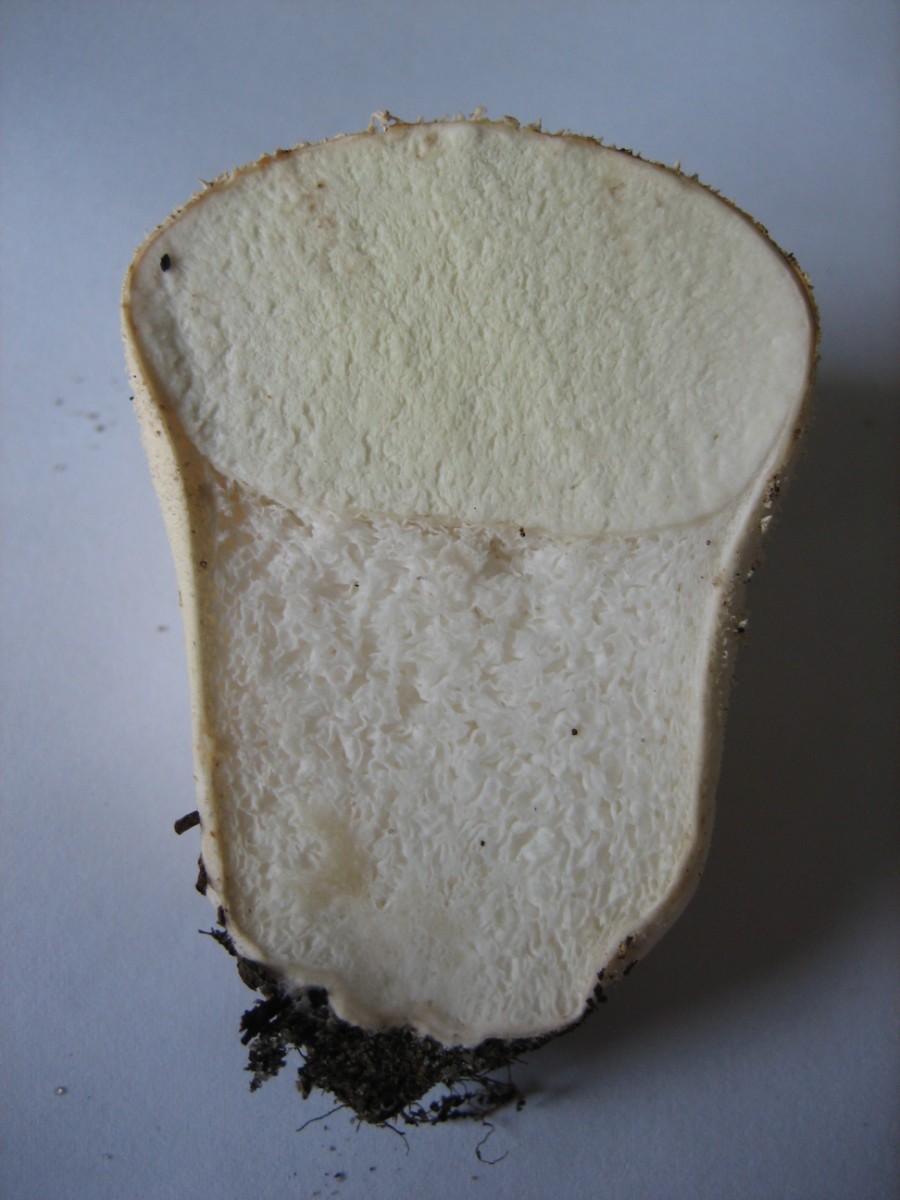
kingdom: Fungi
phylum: Basidiomycota
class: Agaricomycetes
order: Agaricales
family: Lycoperdaceae
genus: Lycoperdon
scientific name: Lycoperdon pratense
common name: flad støvbold
